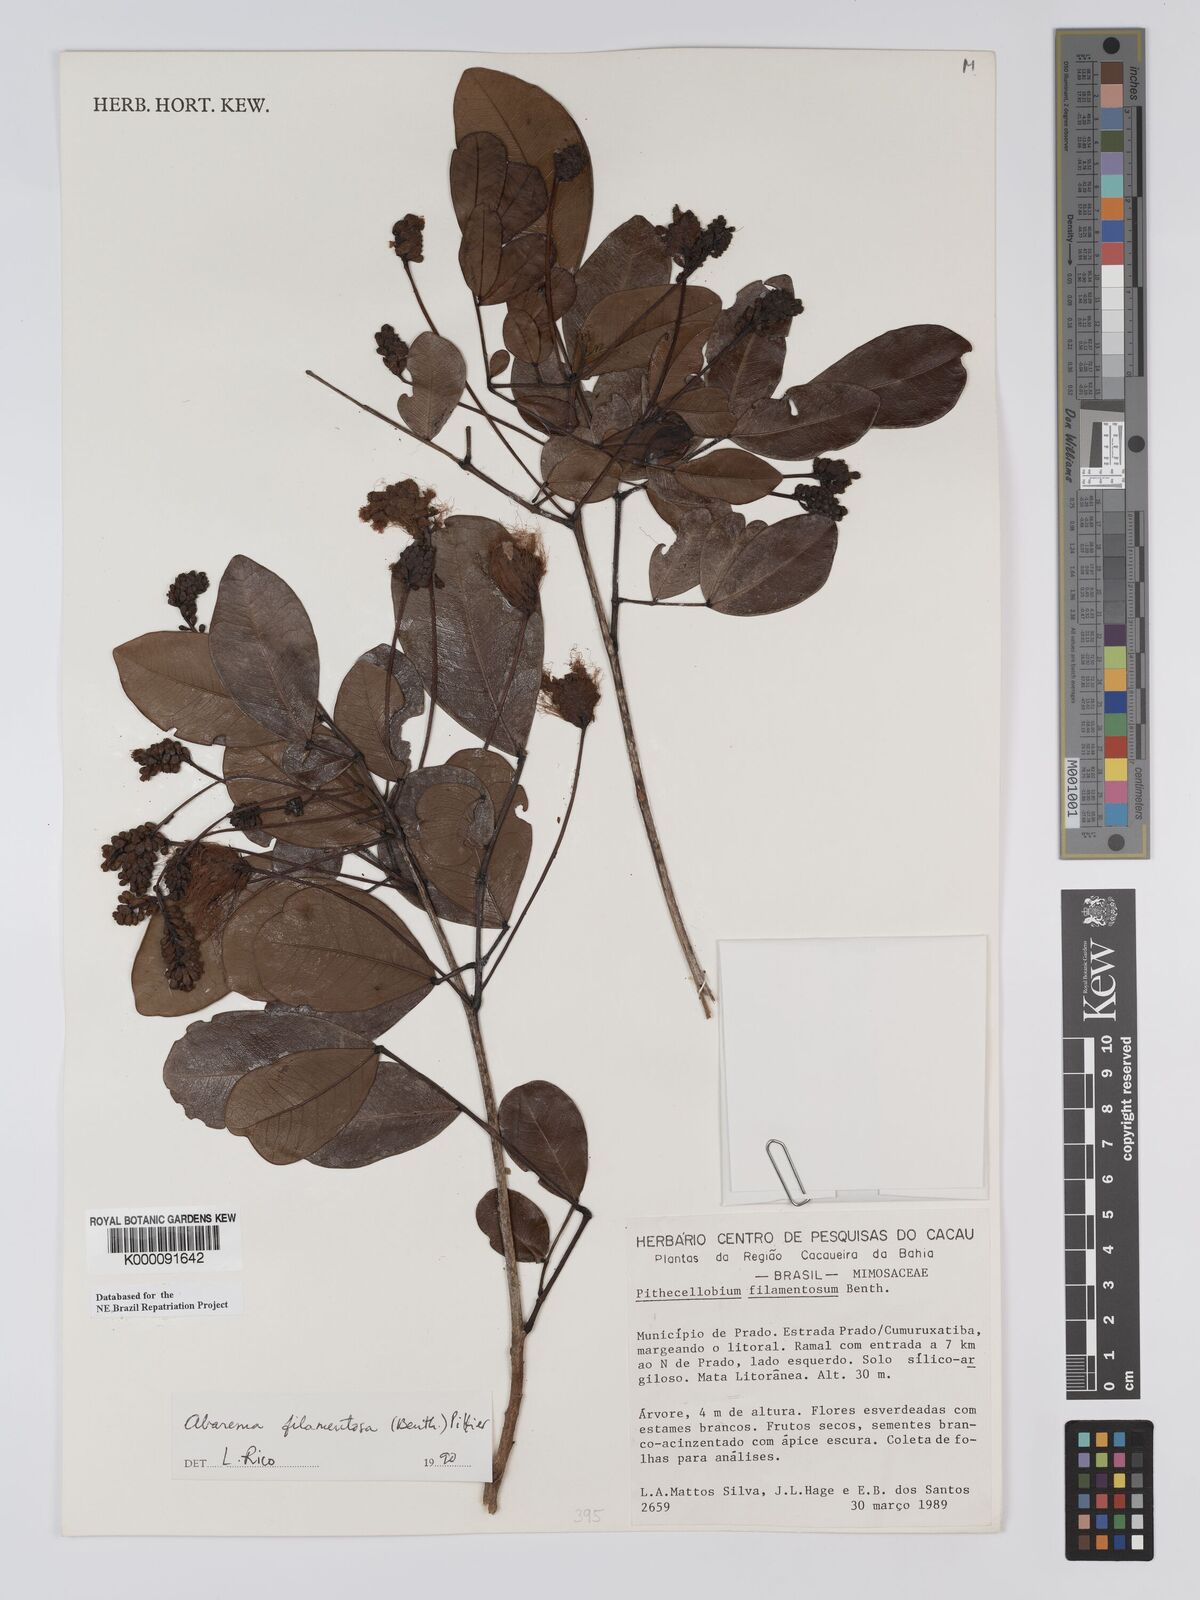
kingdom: Plantae
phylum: Tracheophyta
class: Magnoliopsida
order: Fabales
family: Fabaceae
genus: Jupunba
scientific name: Jupunba filamentosa
